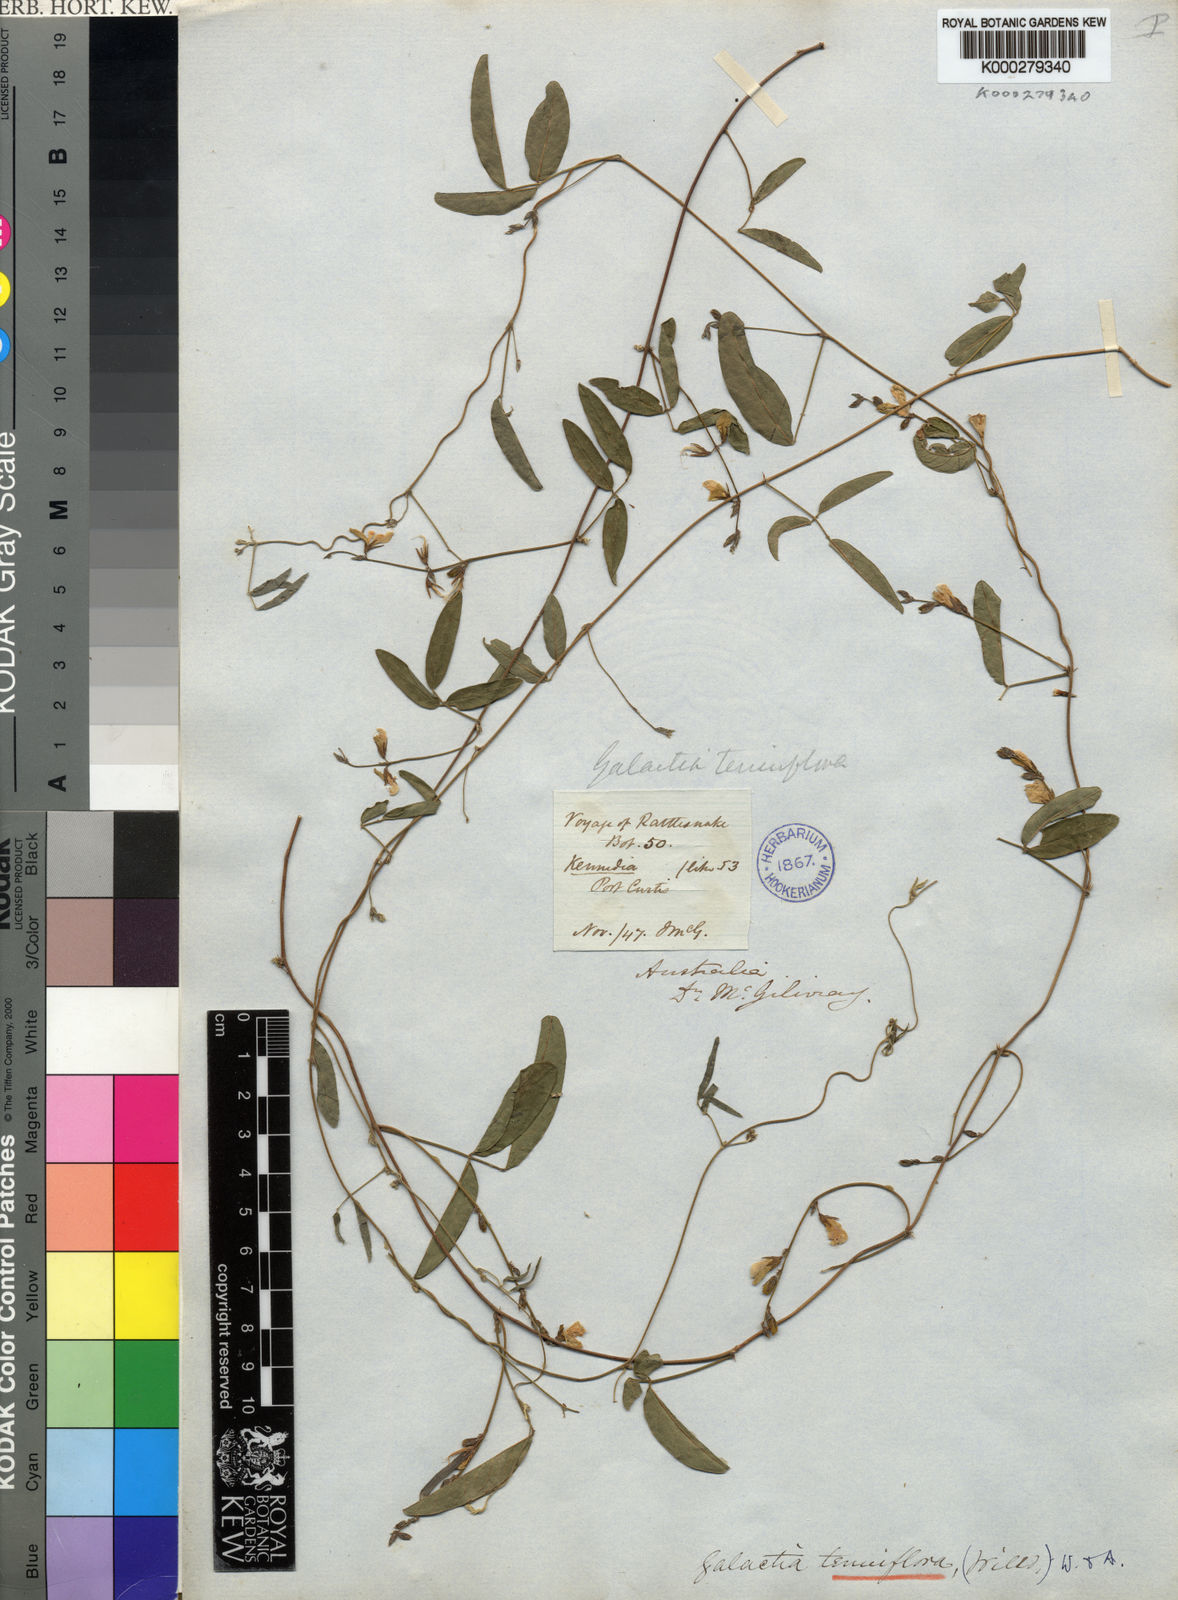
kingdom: Plantae
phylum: Tracheophyta
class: Magnoliopsida
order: Fabales
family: Fabaceae
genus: Galactia
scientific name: Galactia striata
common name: Florida hammock milkpea
